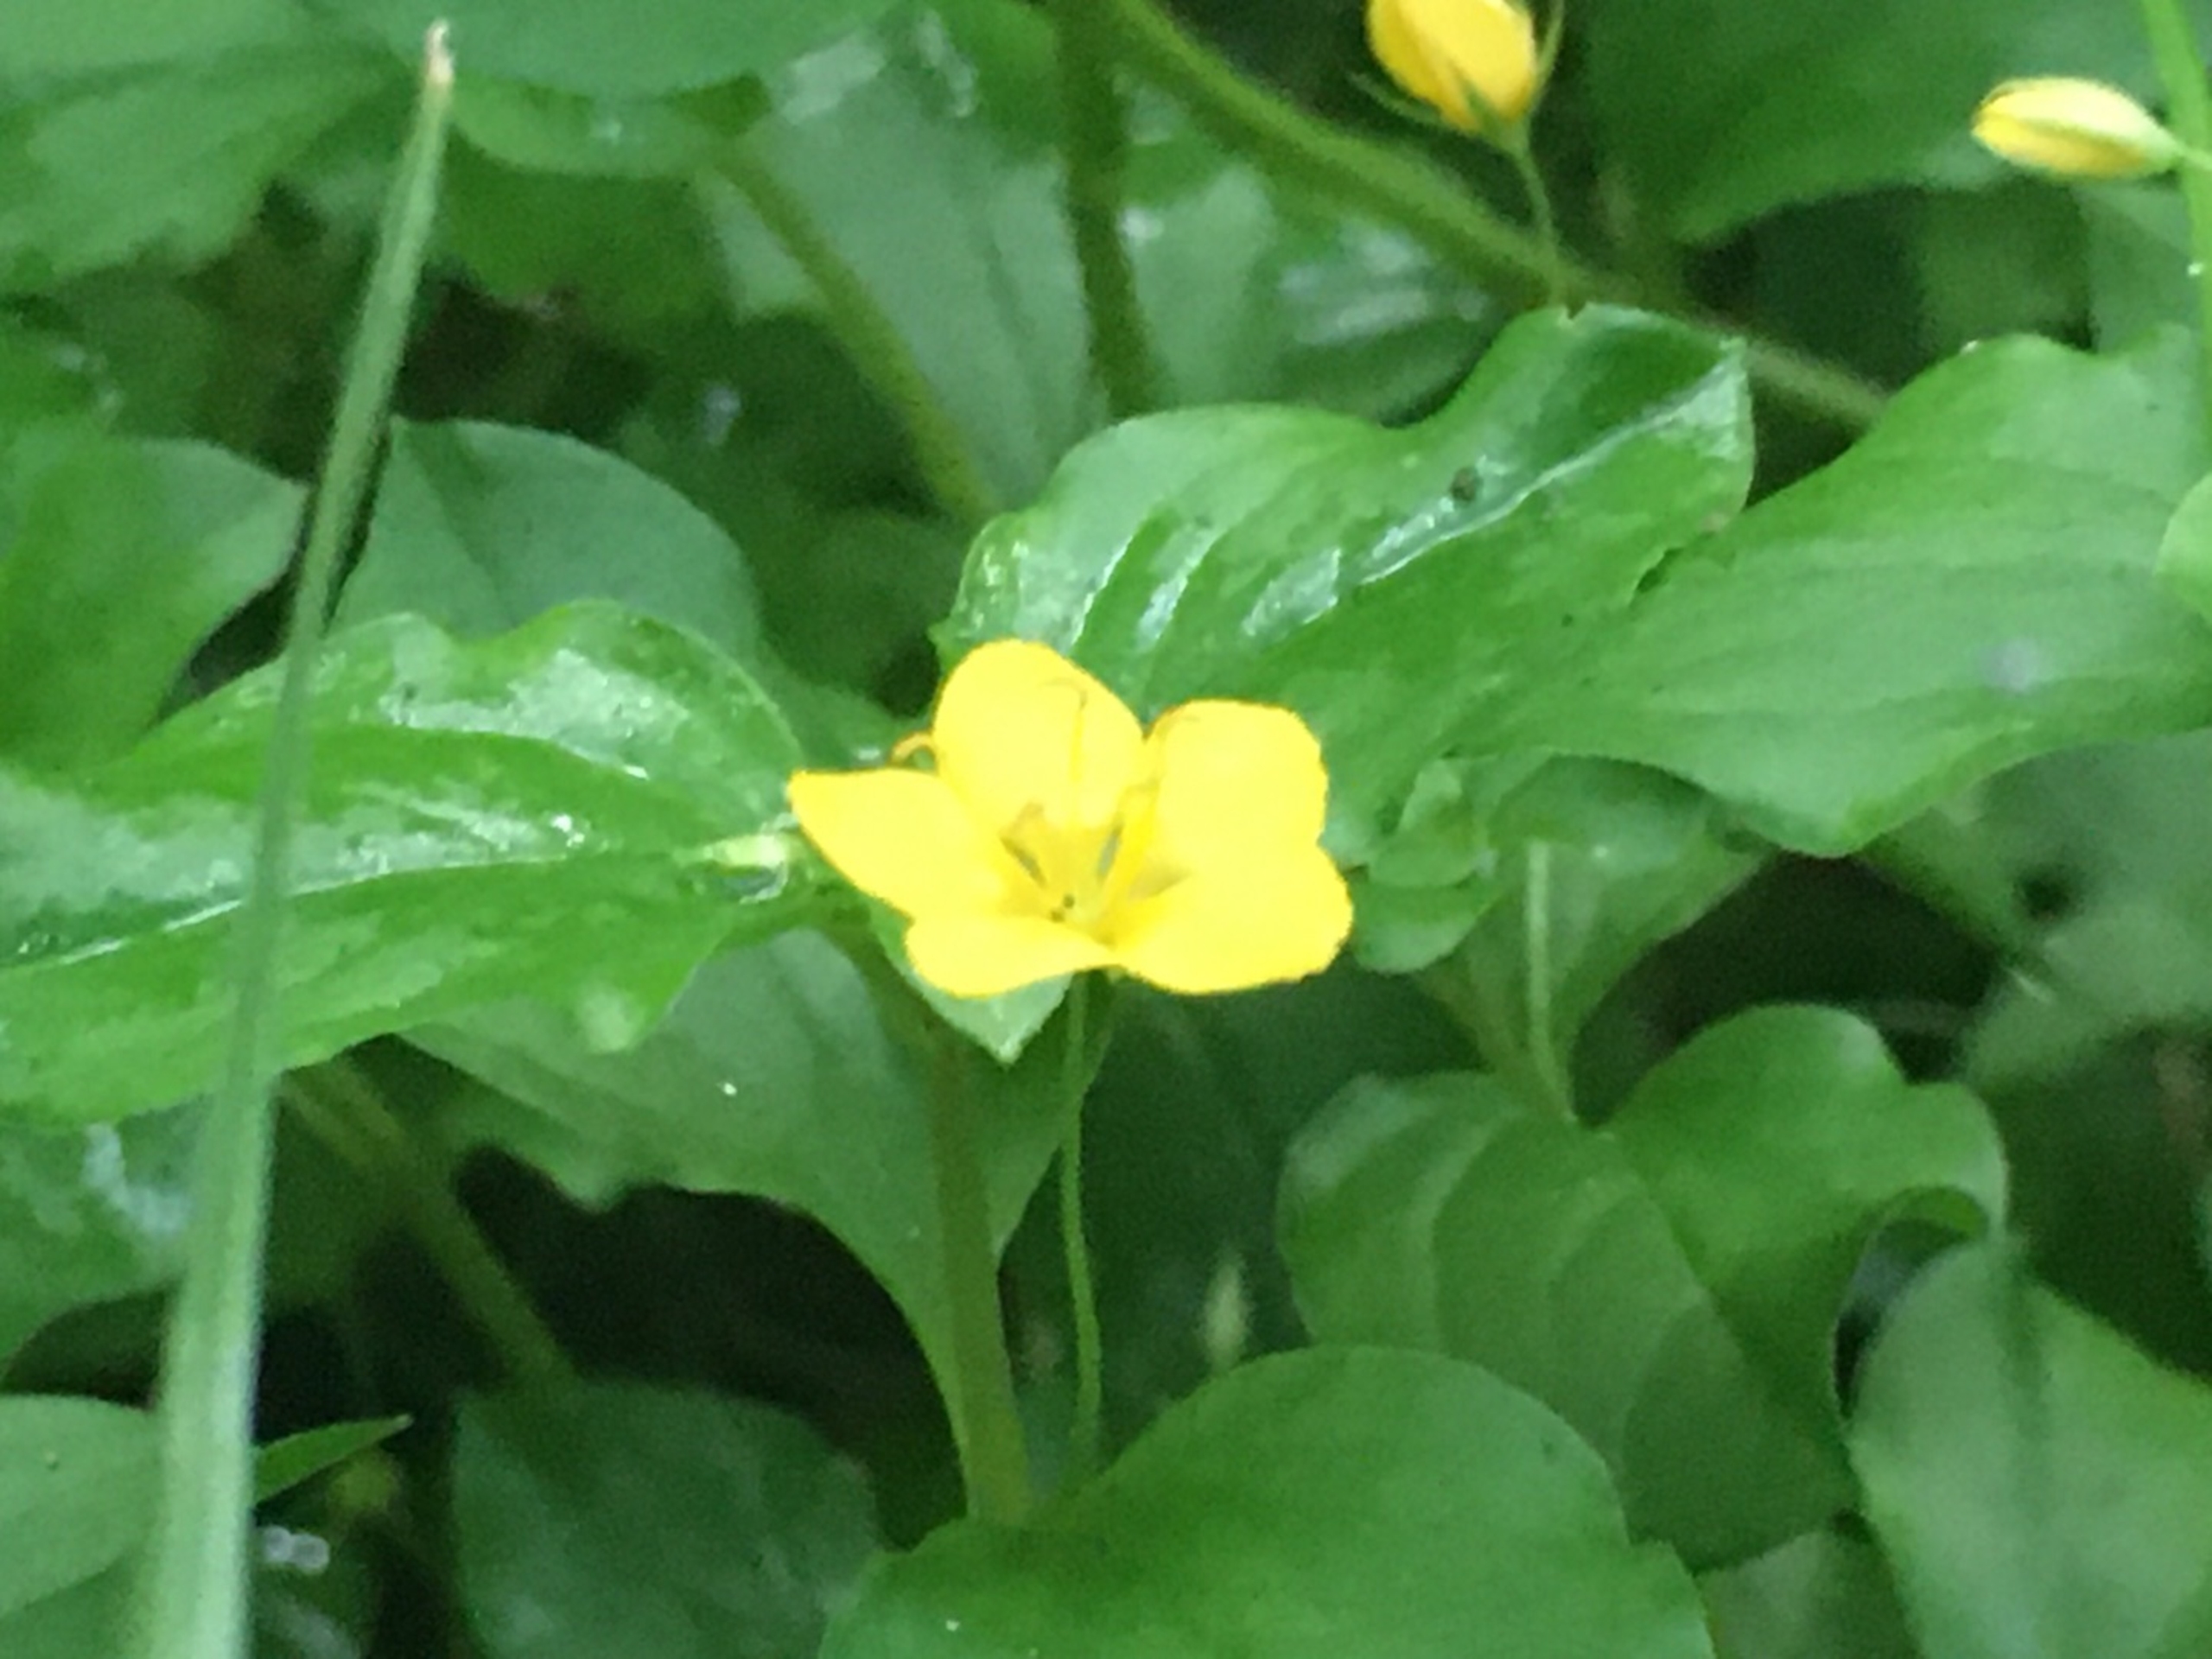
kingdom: Plantae
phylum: Tracheophyta
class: Magnoliopsida
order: Ericales
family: Primulaceae
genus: Lysimachia
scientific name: Lysimachia nemorum
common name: Lund-fredløs
